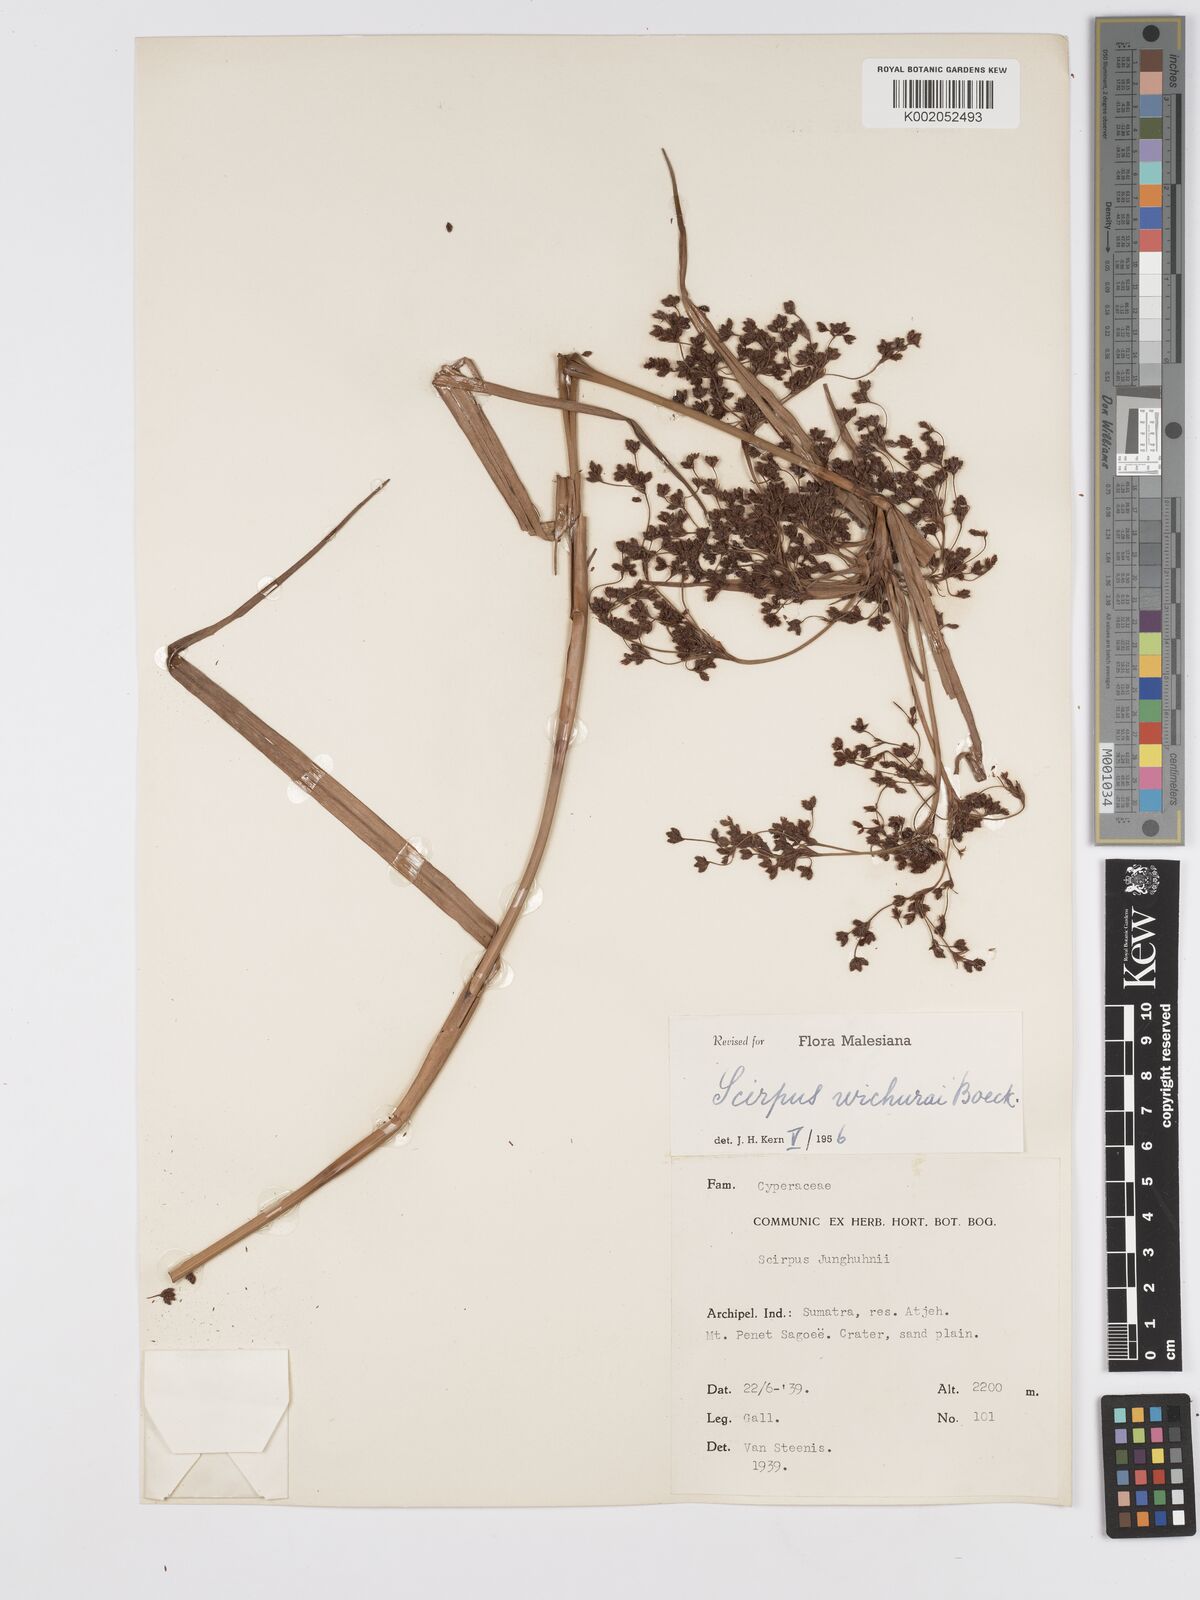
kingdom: Plantae
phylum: Tracheophyta
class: Liliopsida
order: Poales
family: Cyperaceae
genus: Scirpus
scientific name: Scirpus lineatus
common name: Drooping bulrush
